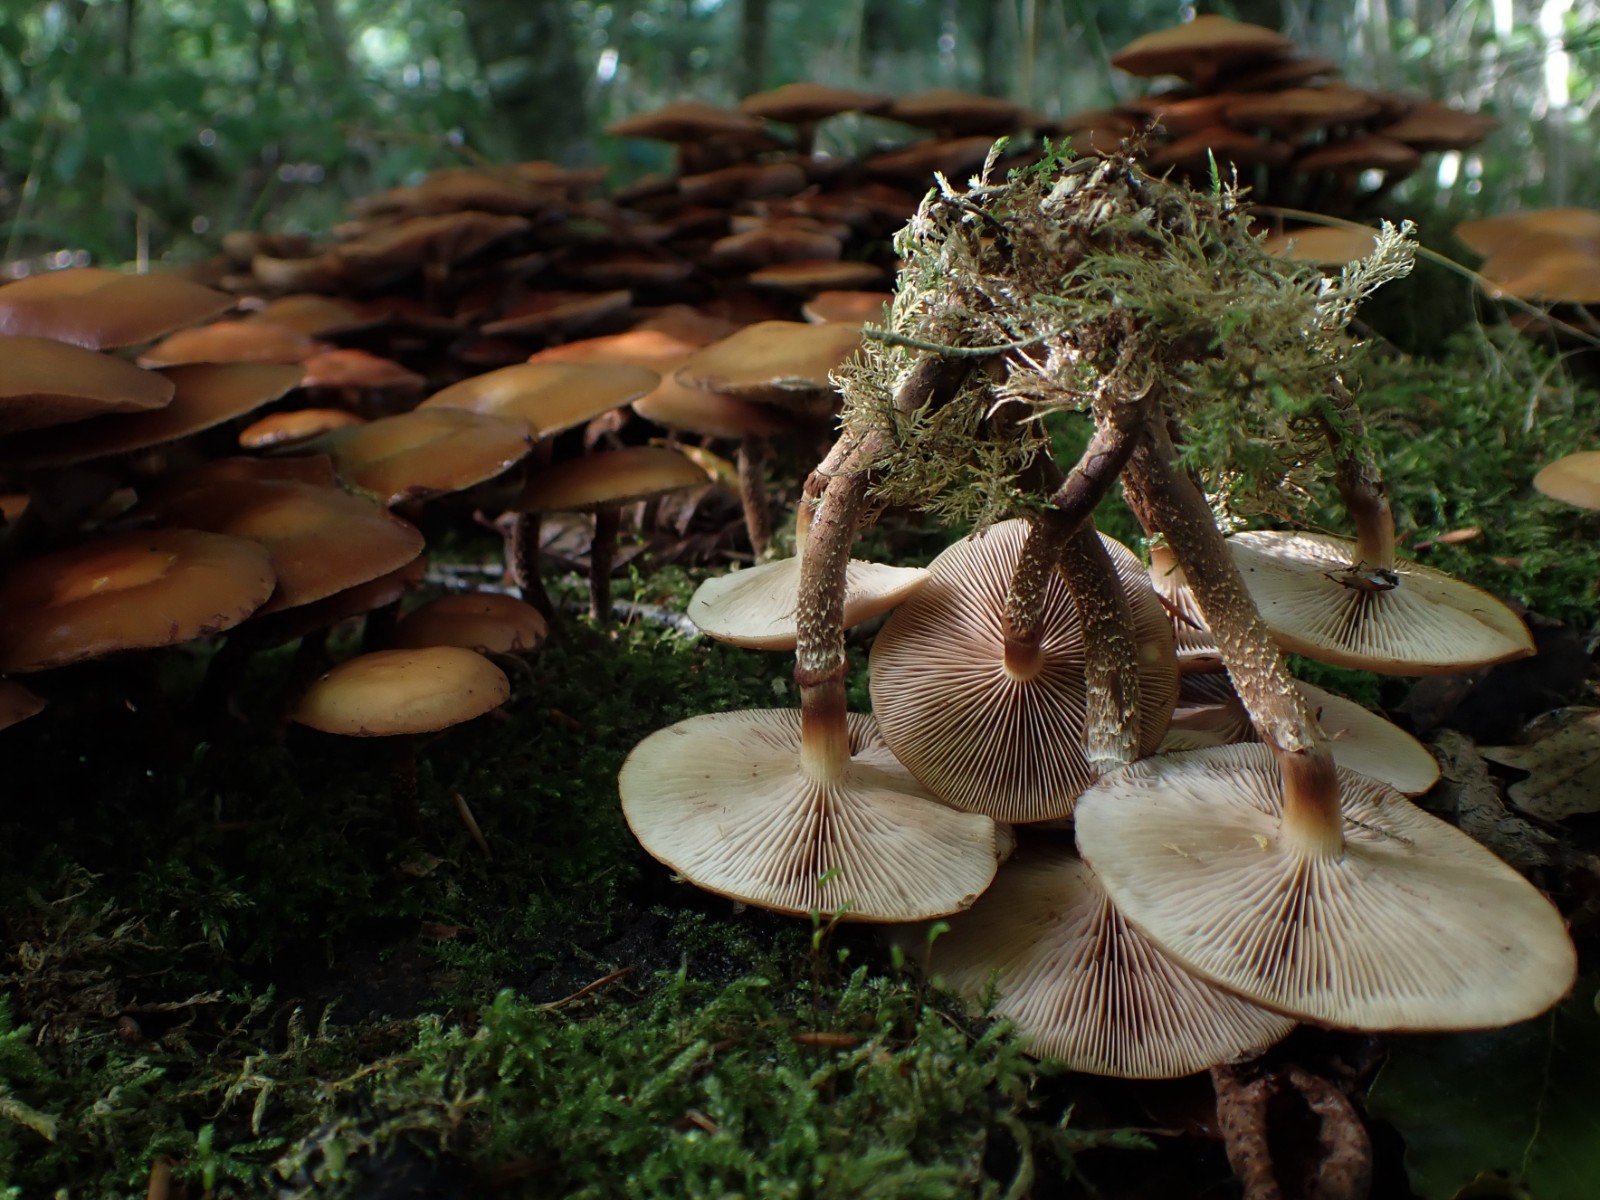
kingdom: Fungi
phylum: Basidiomycota
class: Agaricomycetes
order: Agaricales
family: Strophariaceae
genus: Kuehneromyces
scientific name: Kuehneromyces mutabilis
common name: foranderlig skælhat
